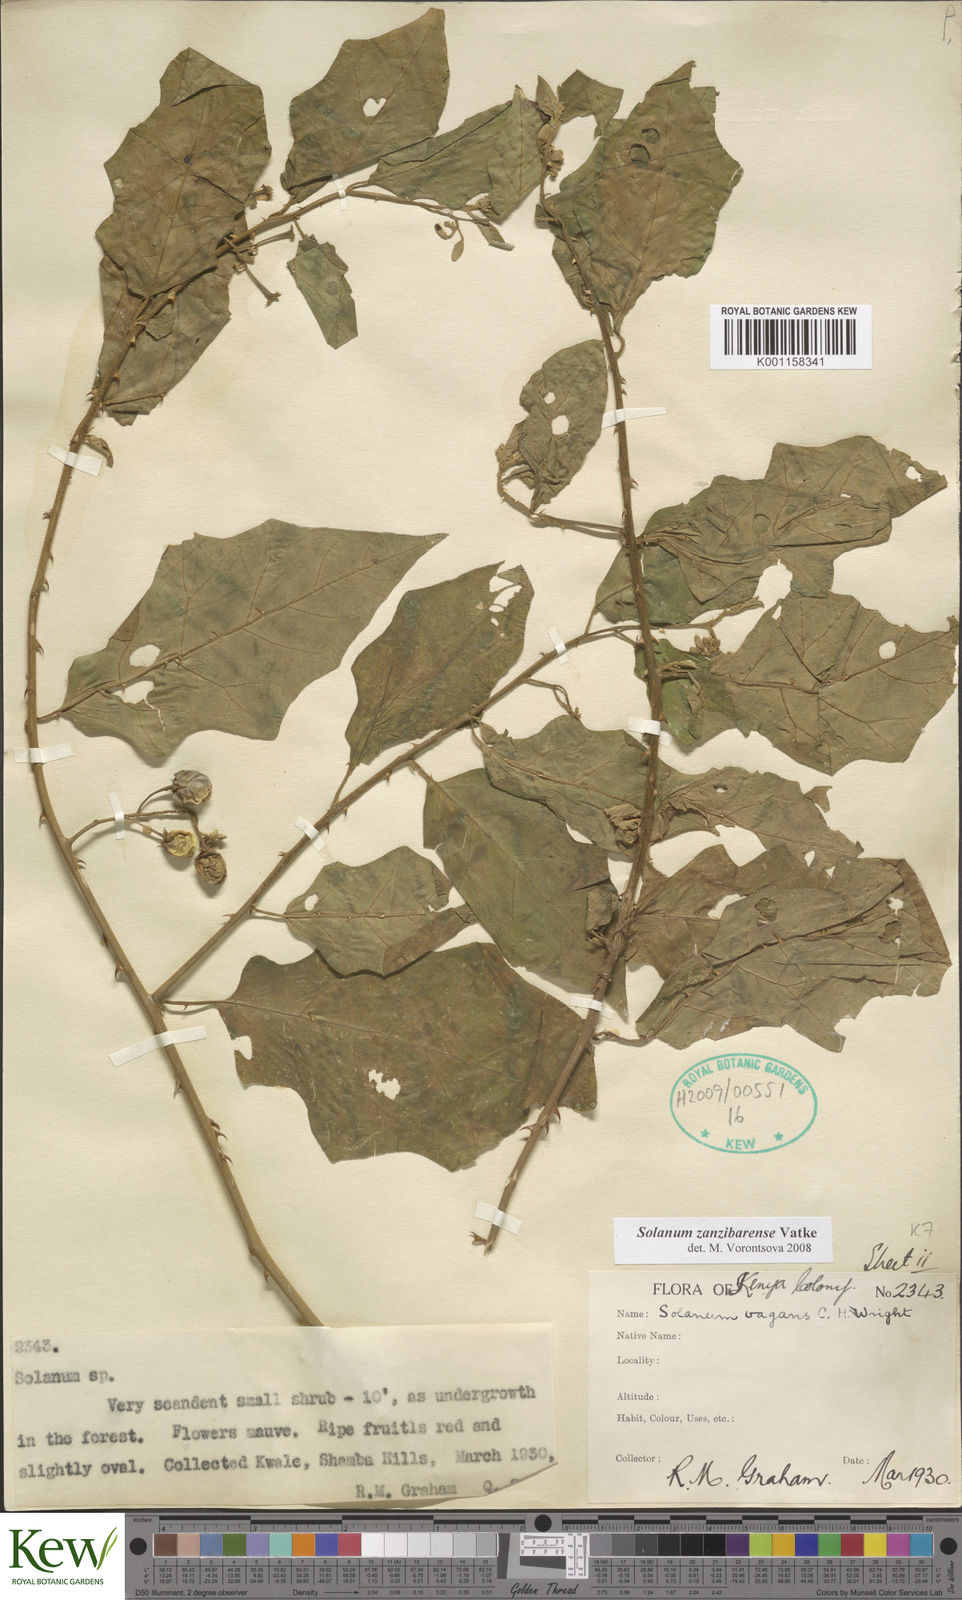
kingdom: Plantae
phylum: Tracheophyta
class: Magnoliopsida
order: Solanales
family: Solanaceae
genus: Solanum
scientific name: Solanum zanzibarense
